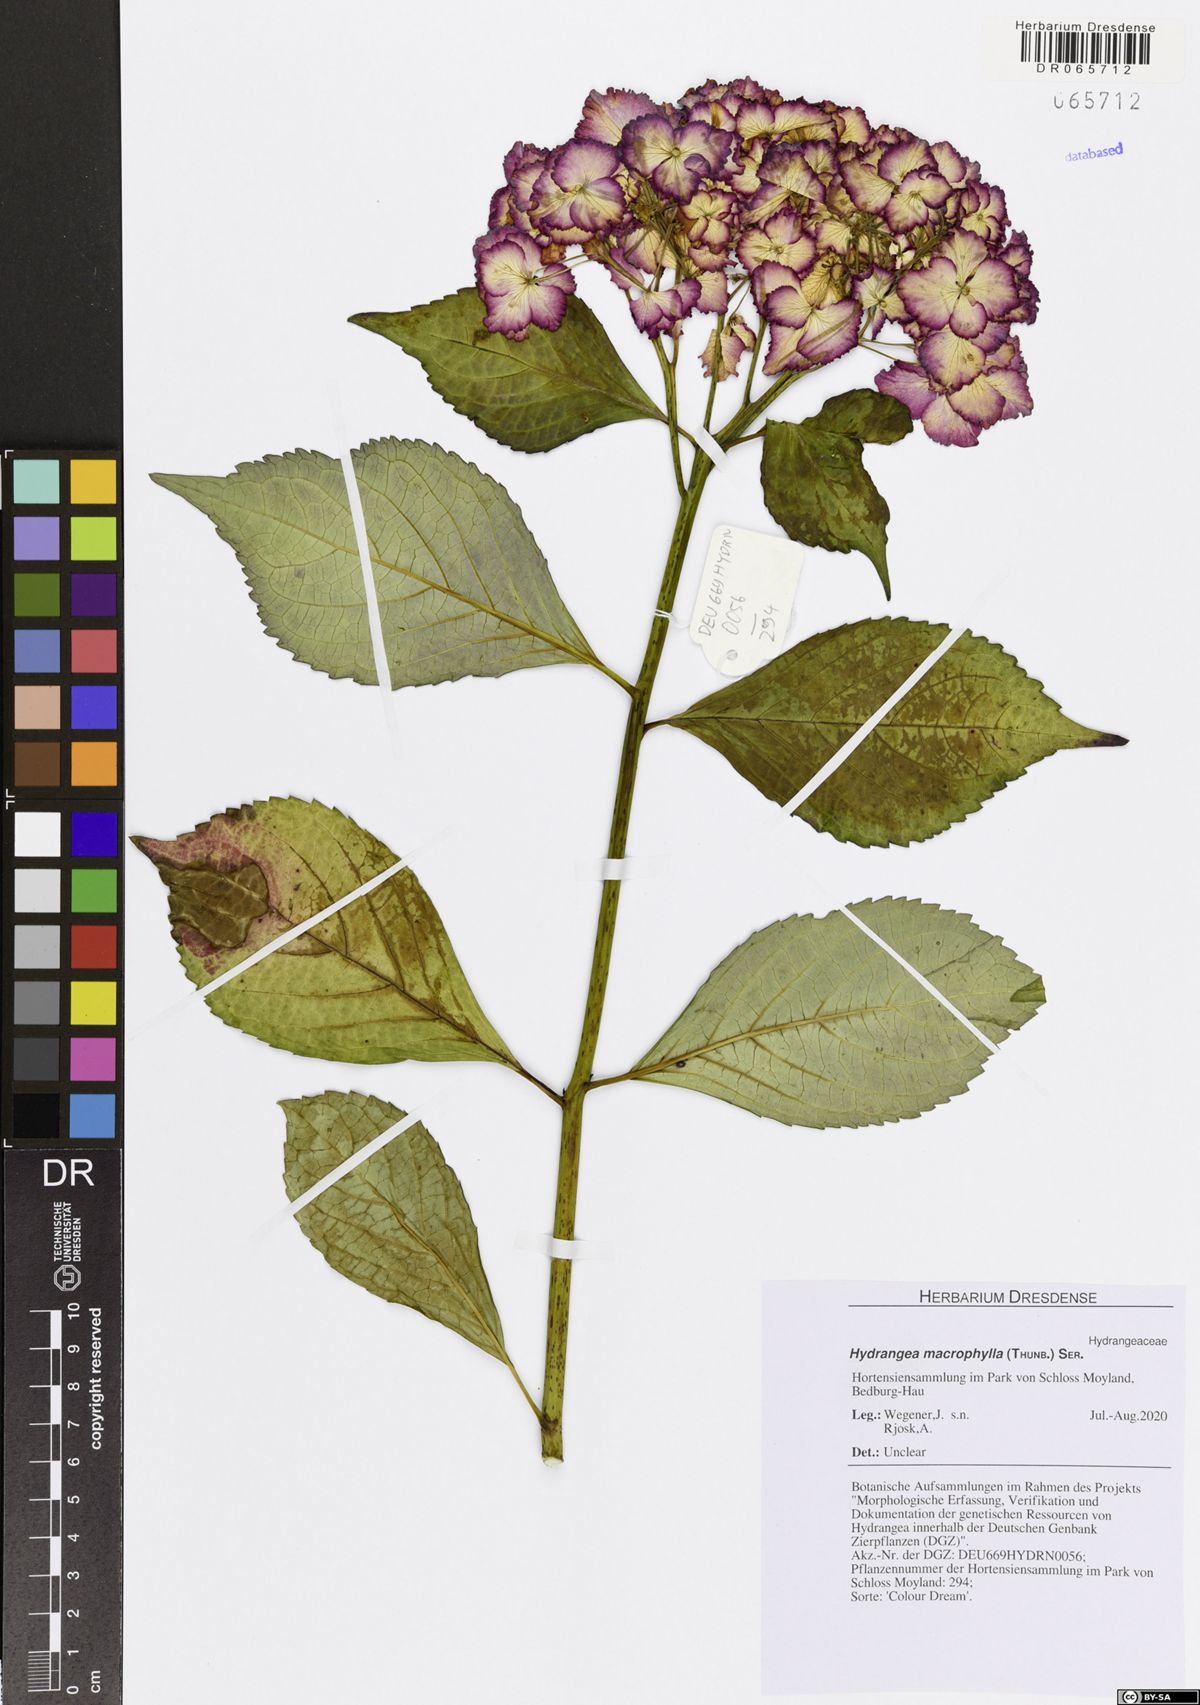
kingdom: Plantae
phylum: Tracheophyta
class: Magnoliopsida
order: Cornales
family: Hydrangeaceae
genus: Hydrangea
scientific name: Hydrangea macrophylla
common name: Hydrangea
